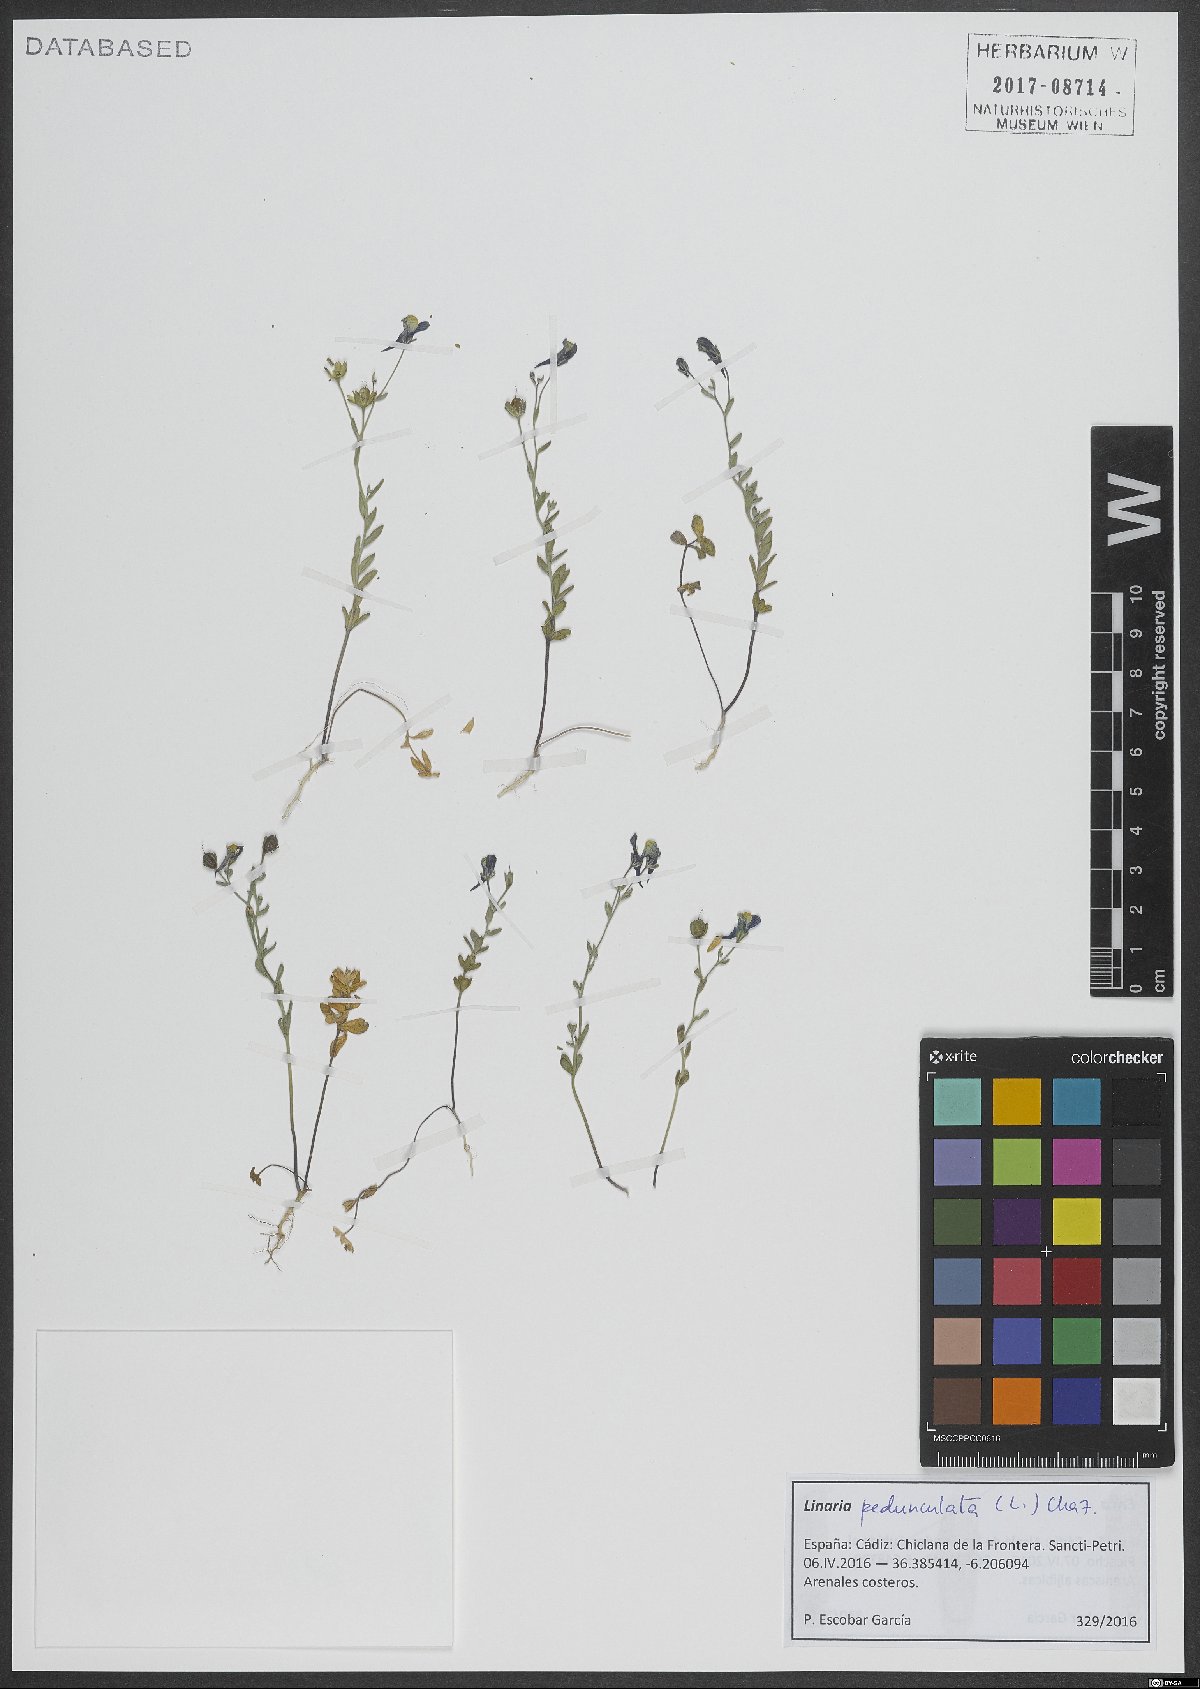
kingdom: Plantae
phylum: Tracheophyta
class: Magnoliopsida
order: Lamiales
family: Plantaginaceae
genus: Linaria
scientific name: Linaria pedunculata
